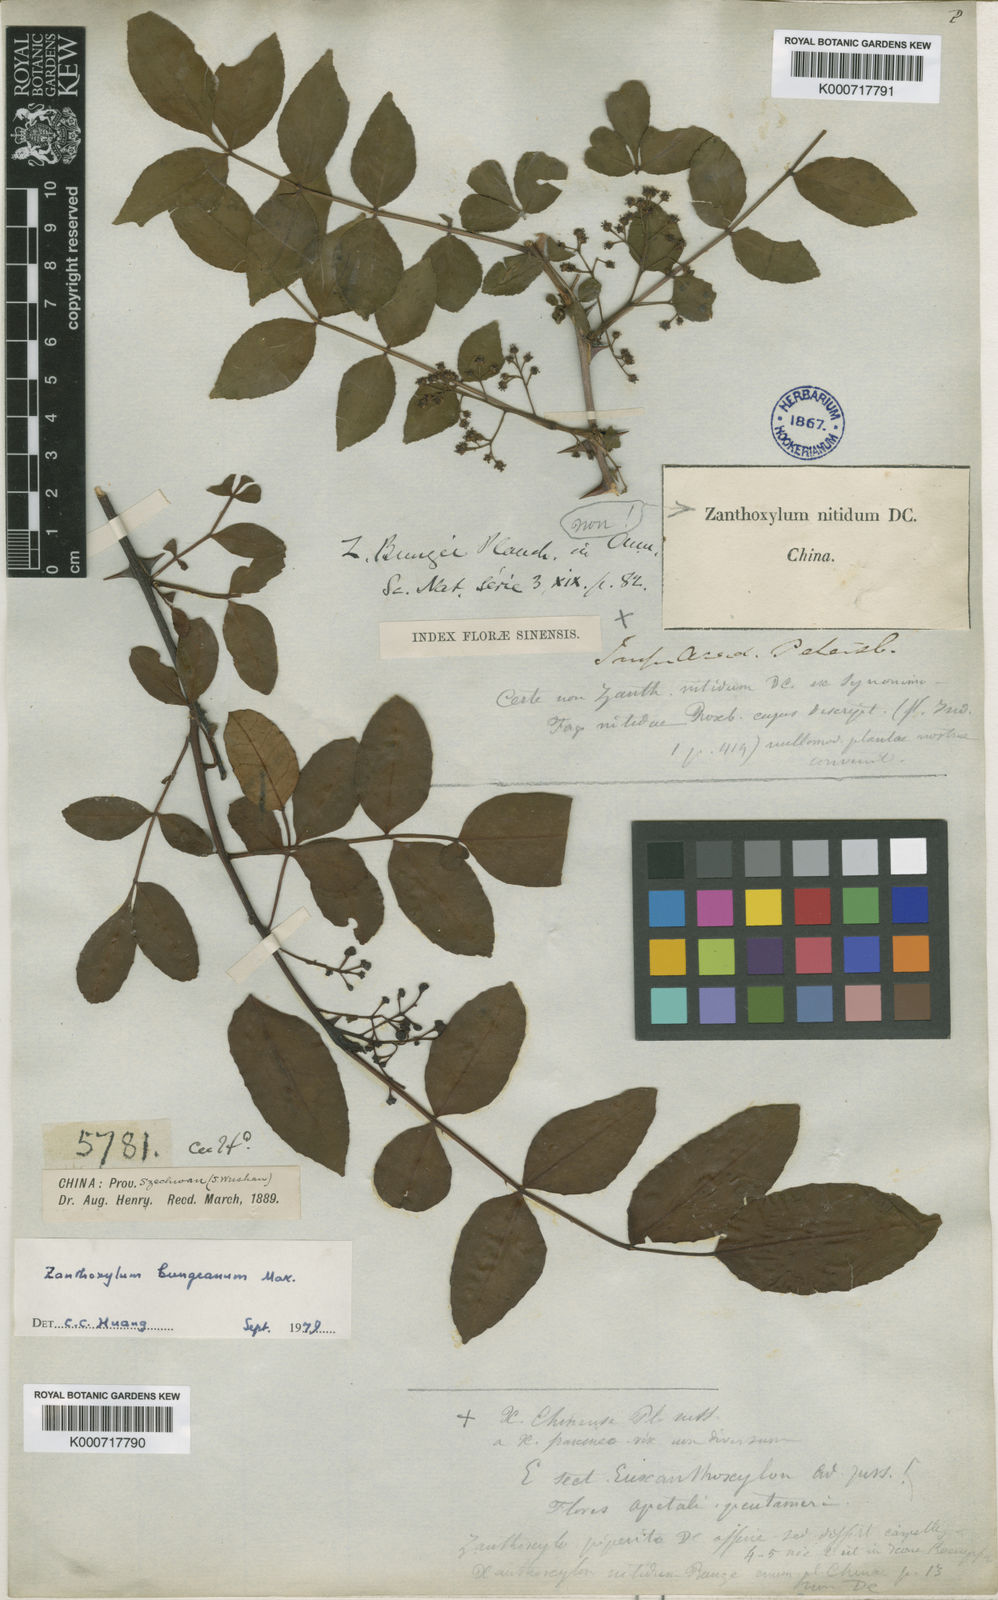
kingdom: Plantae
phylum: Tracheophyta
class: Magnoliopsida
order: Sapindales
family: Rutaceae
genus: Zanthoxylum
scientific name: Zanthoxylum simulans
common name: Chinese-pepper
